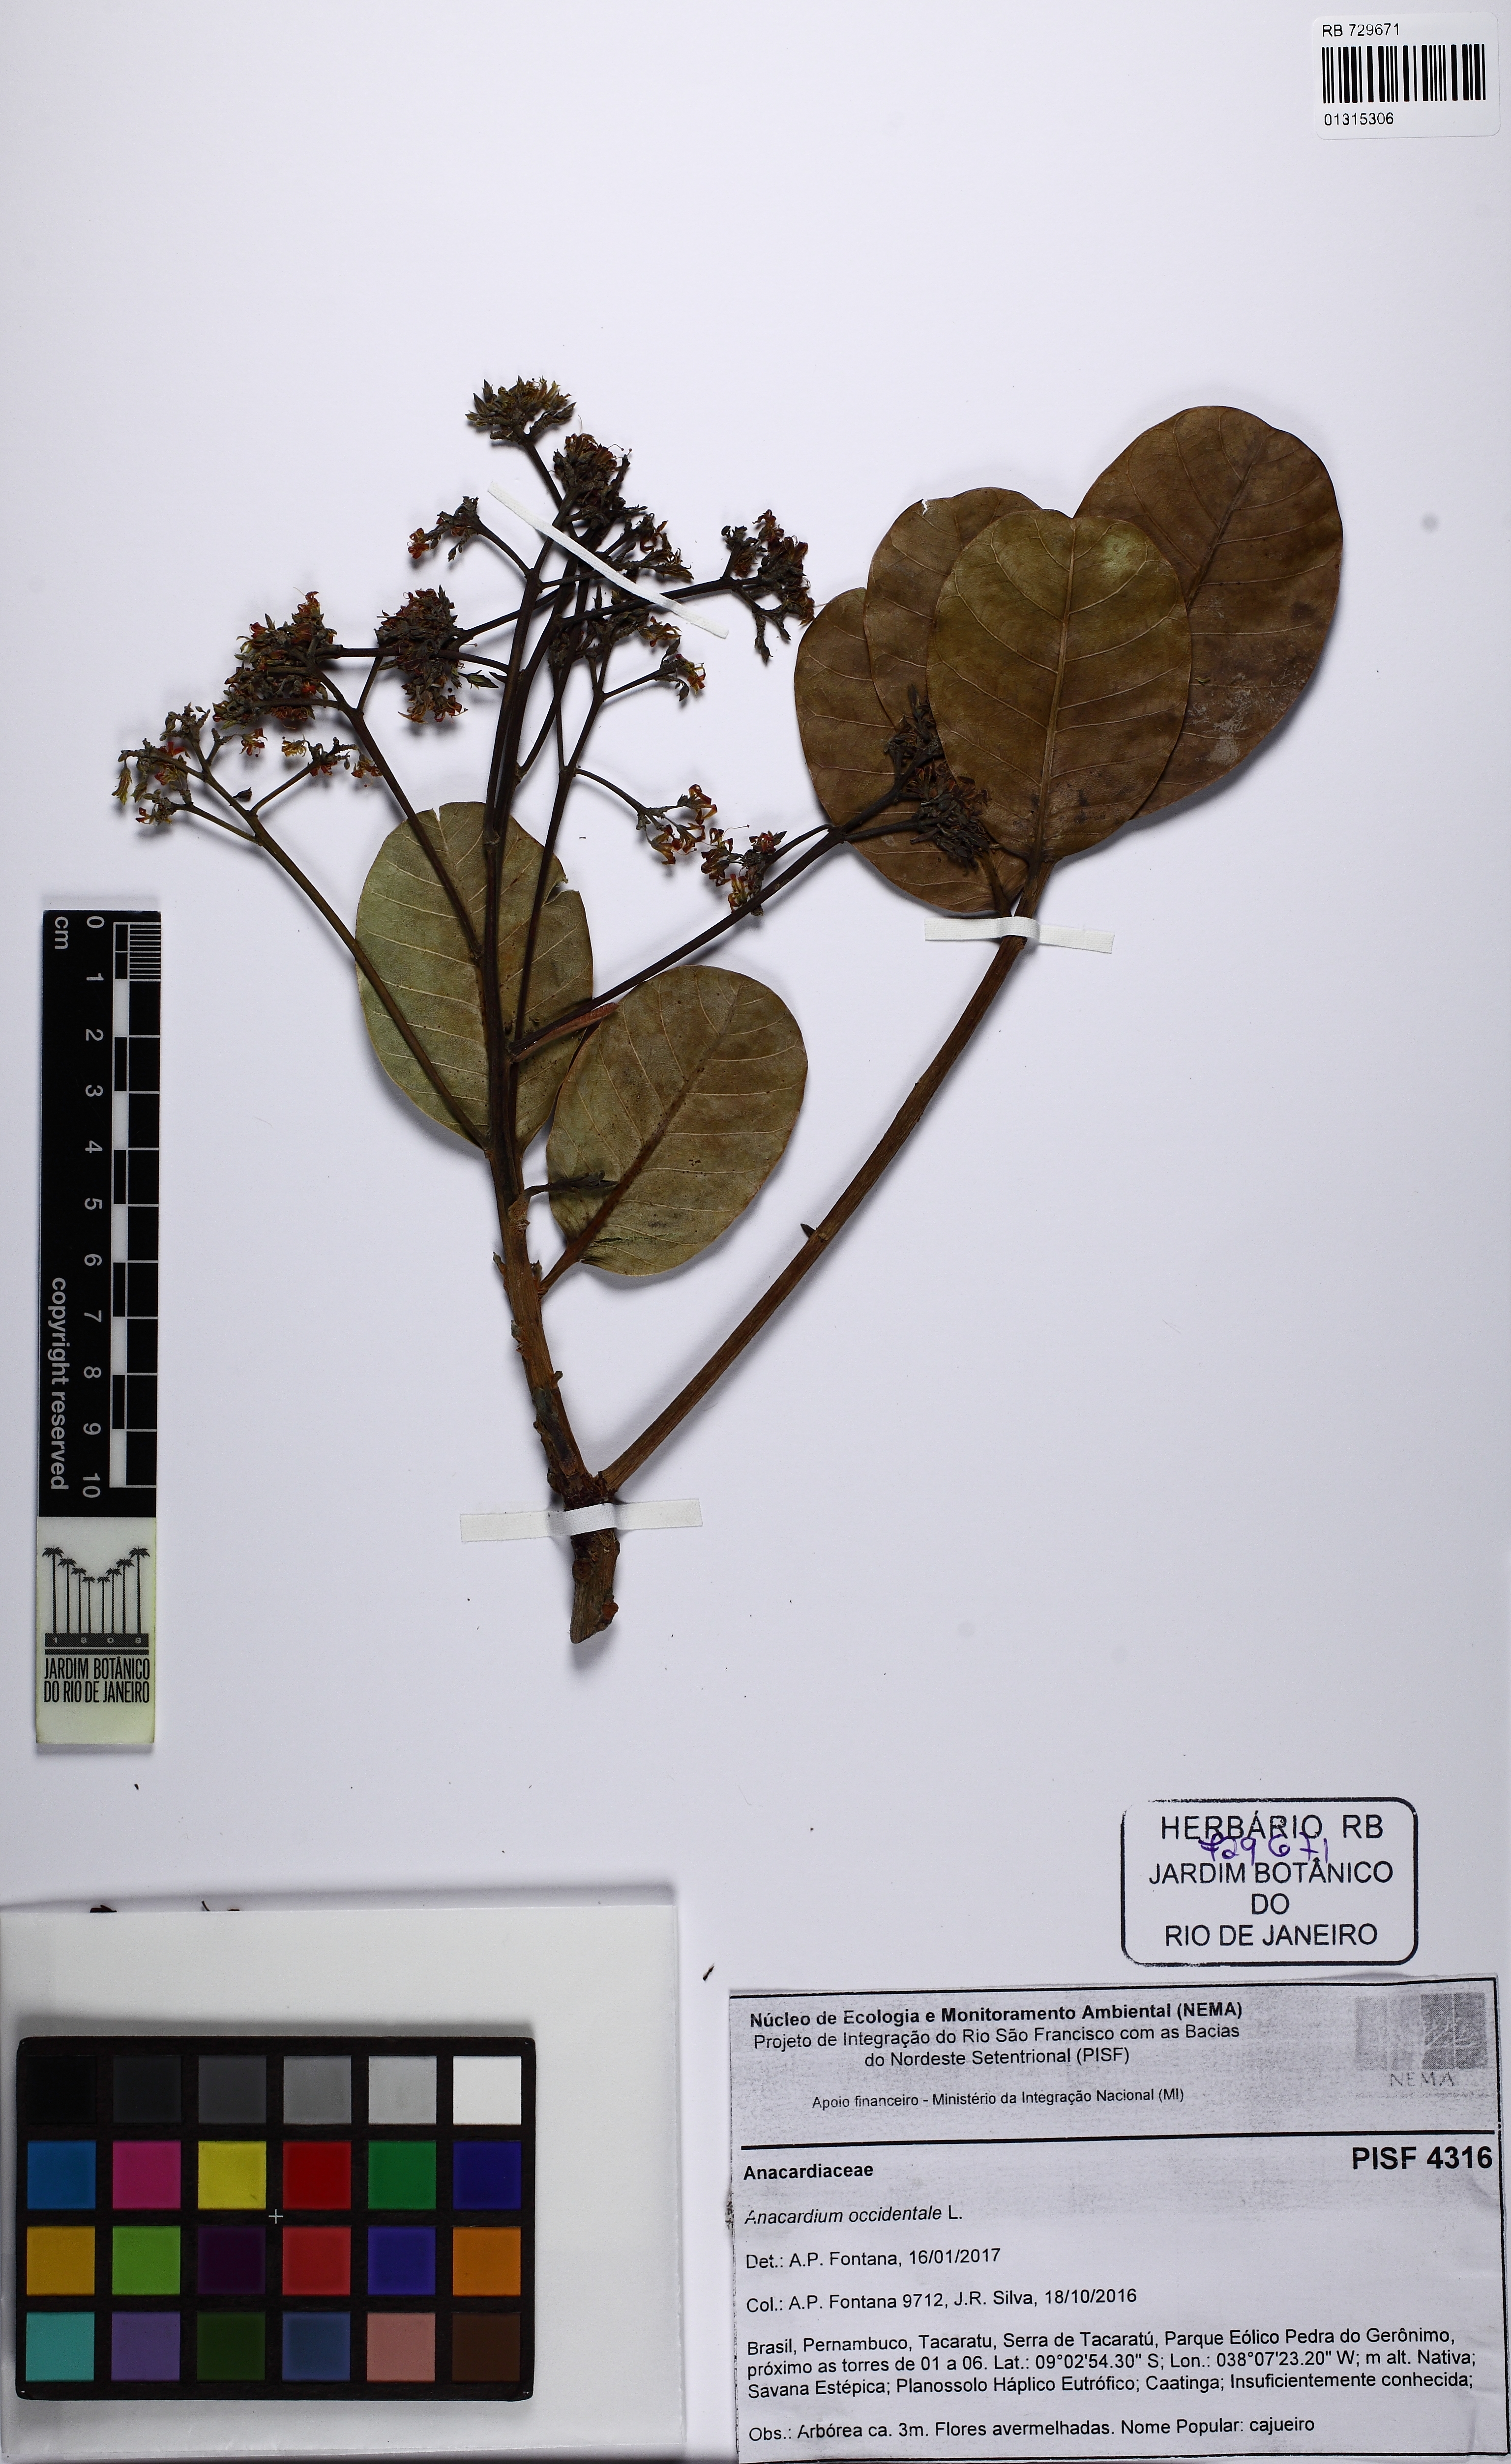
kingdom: Plantae
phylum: Tracheophyta
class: Magnoliopsida
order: Sapindales
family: Anacardiaceae
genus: Anacardium
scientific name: Anacardium occidentale
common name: Cashew
